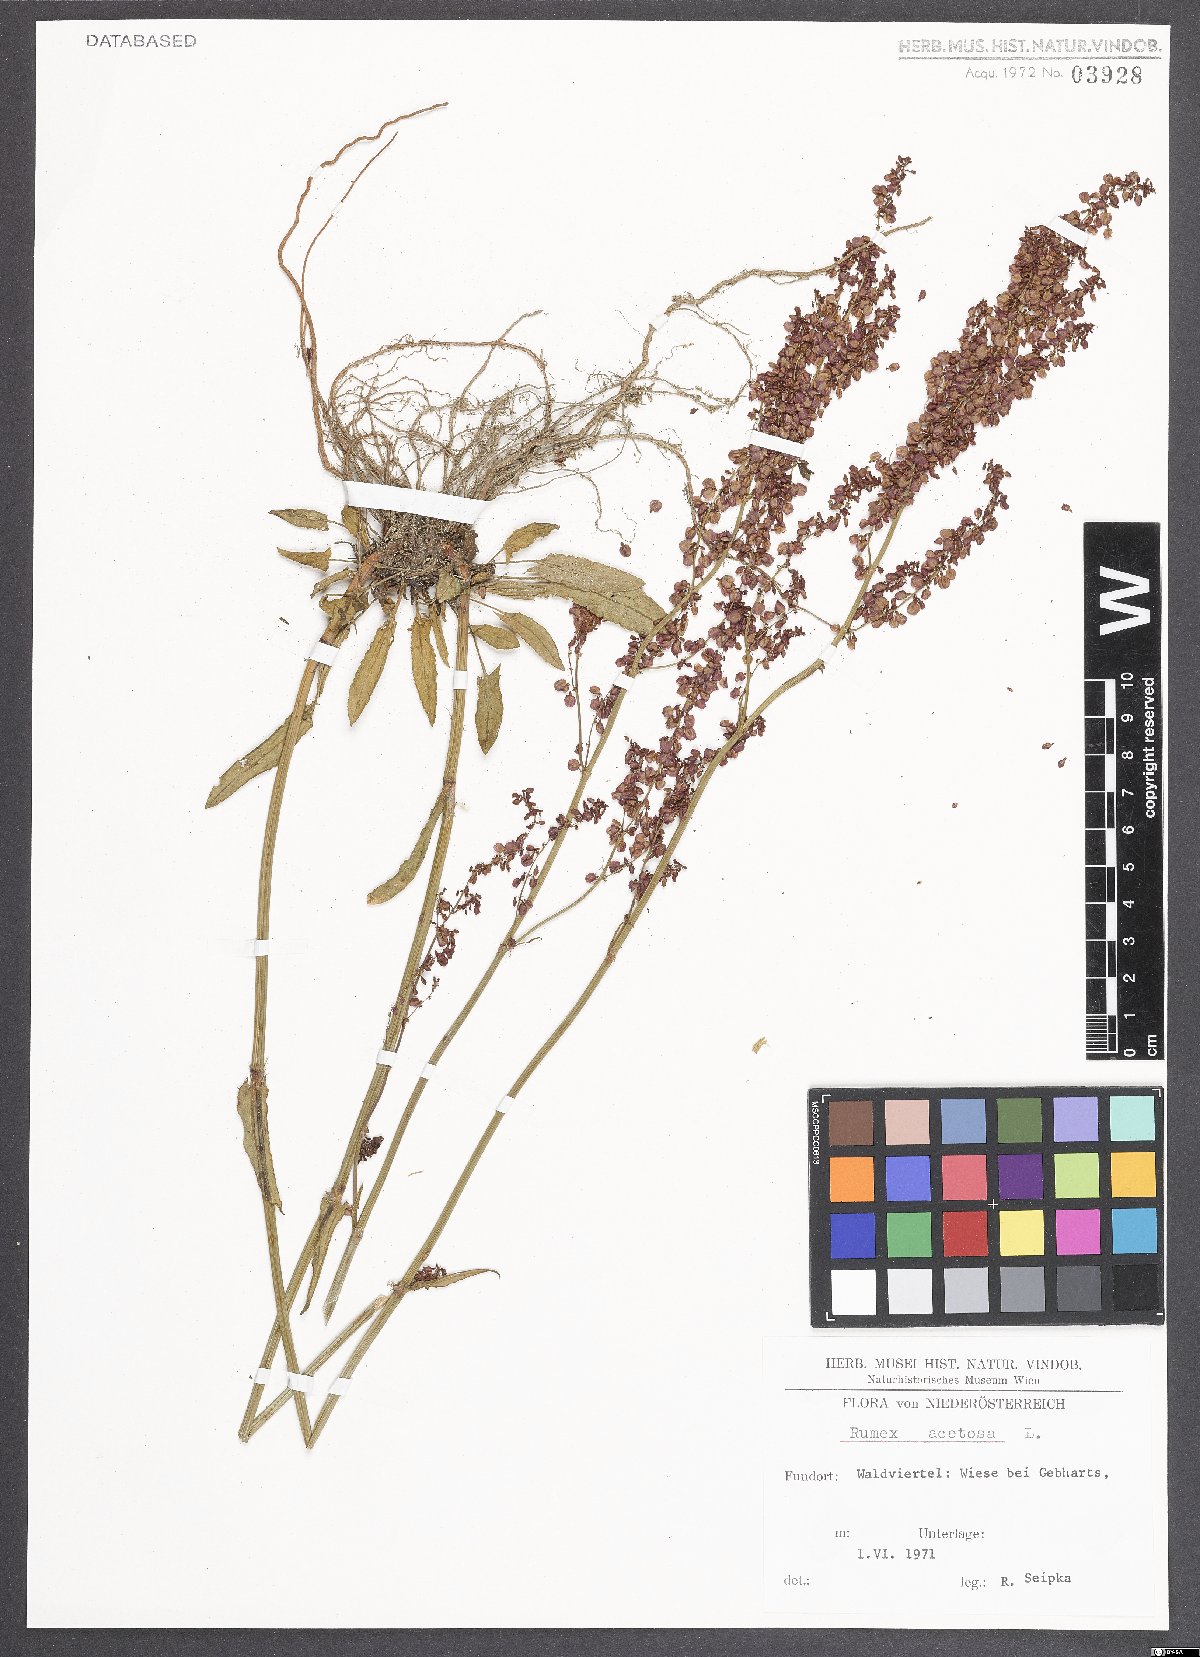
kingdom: Plantae
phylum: Tracheophyta
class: Magnoliopsida
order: Caryophyllales
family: Polygonaceae
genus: Rumex
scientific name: Rumex acetosa
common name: Garden sorrel
